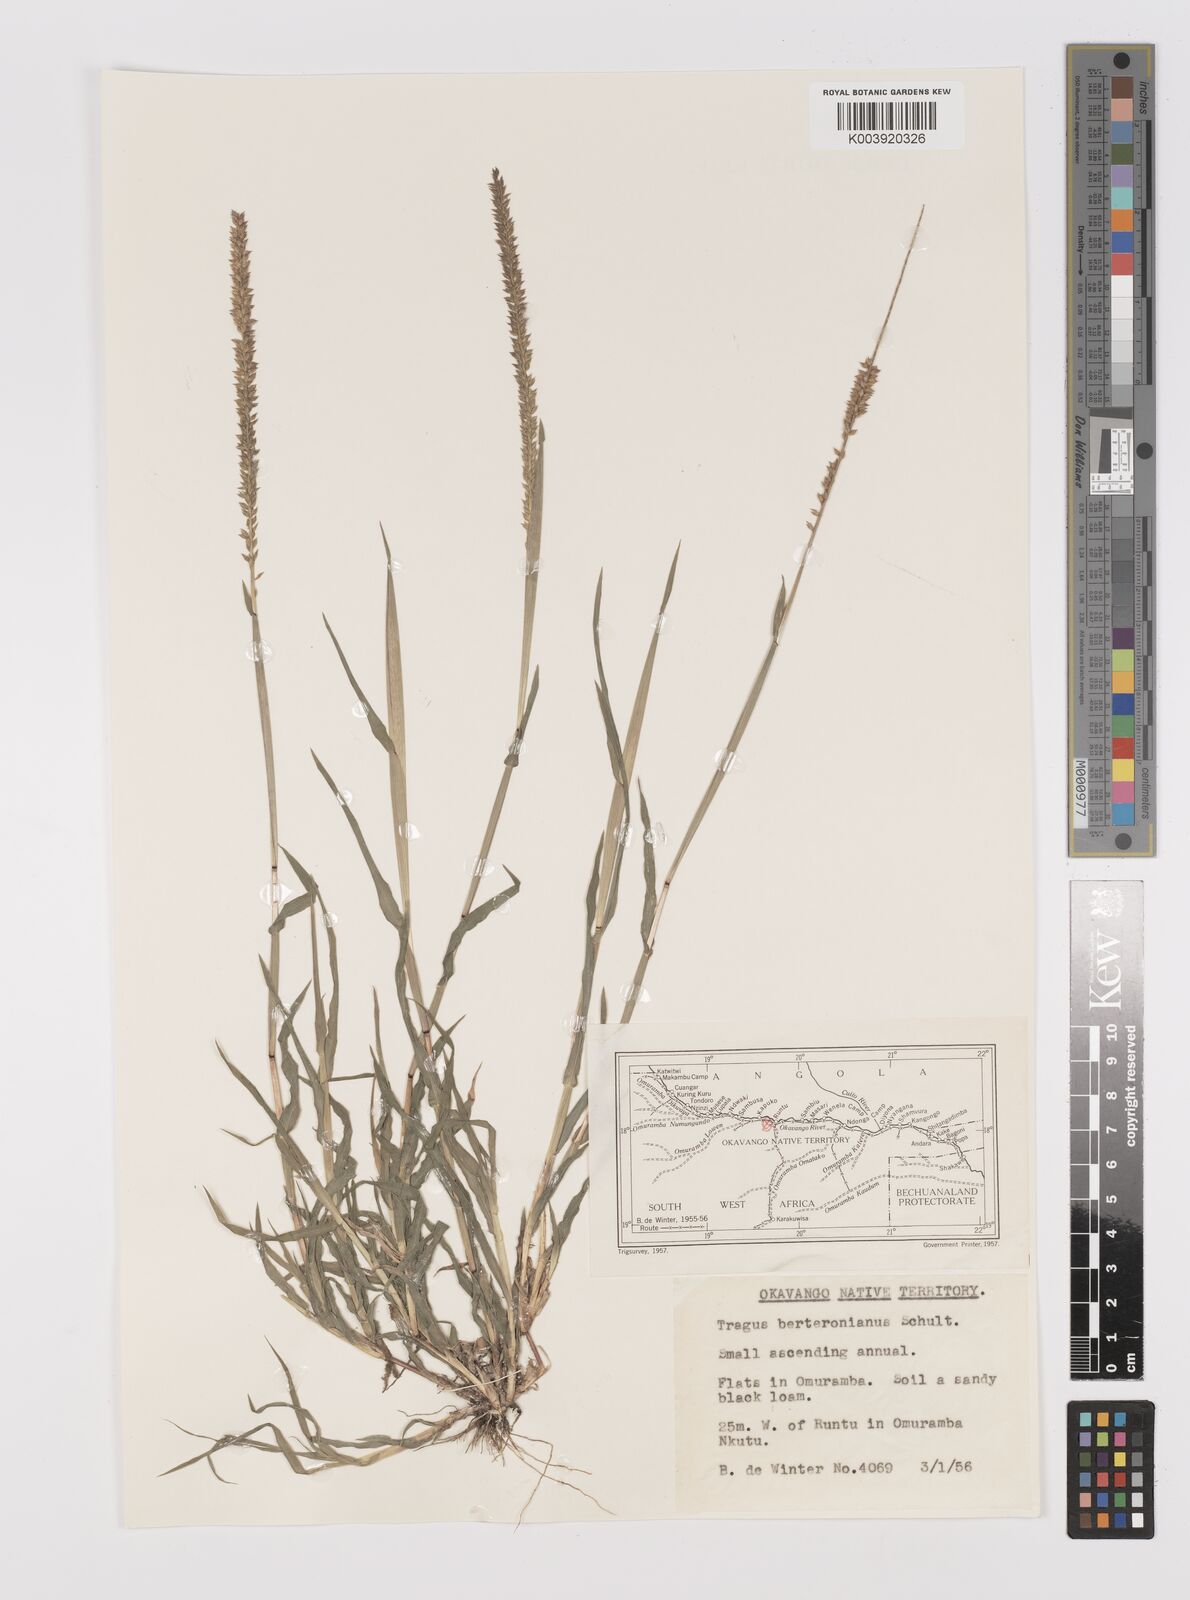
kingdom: Plantae
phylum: Tracheophyta
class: Liliopsida
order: Poales
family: Poaceae
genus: Tragus
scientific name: Tragus berteronianus
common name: African bur-grass
